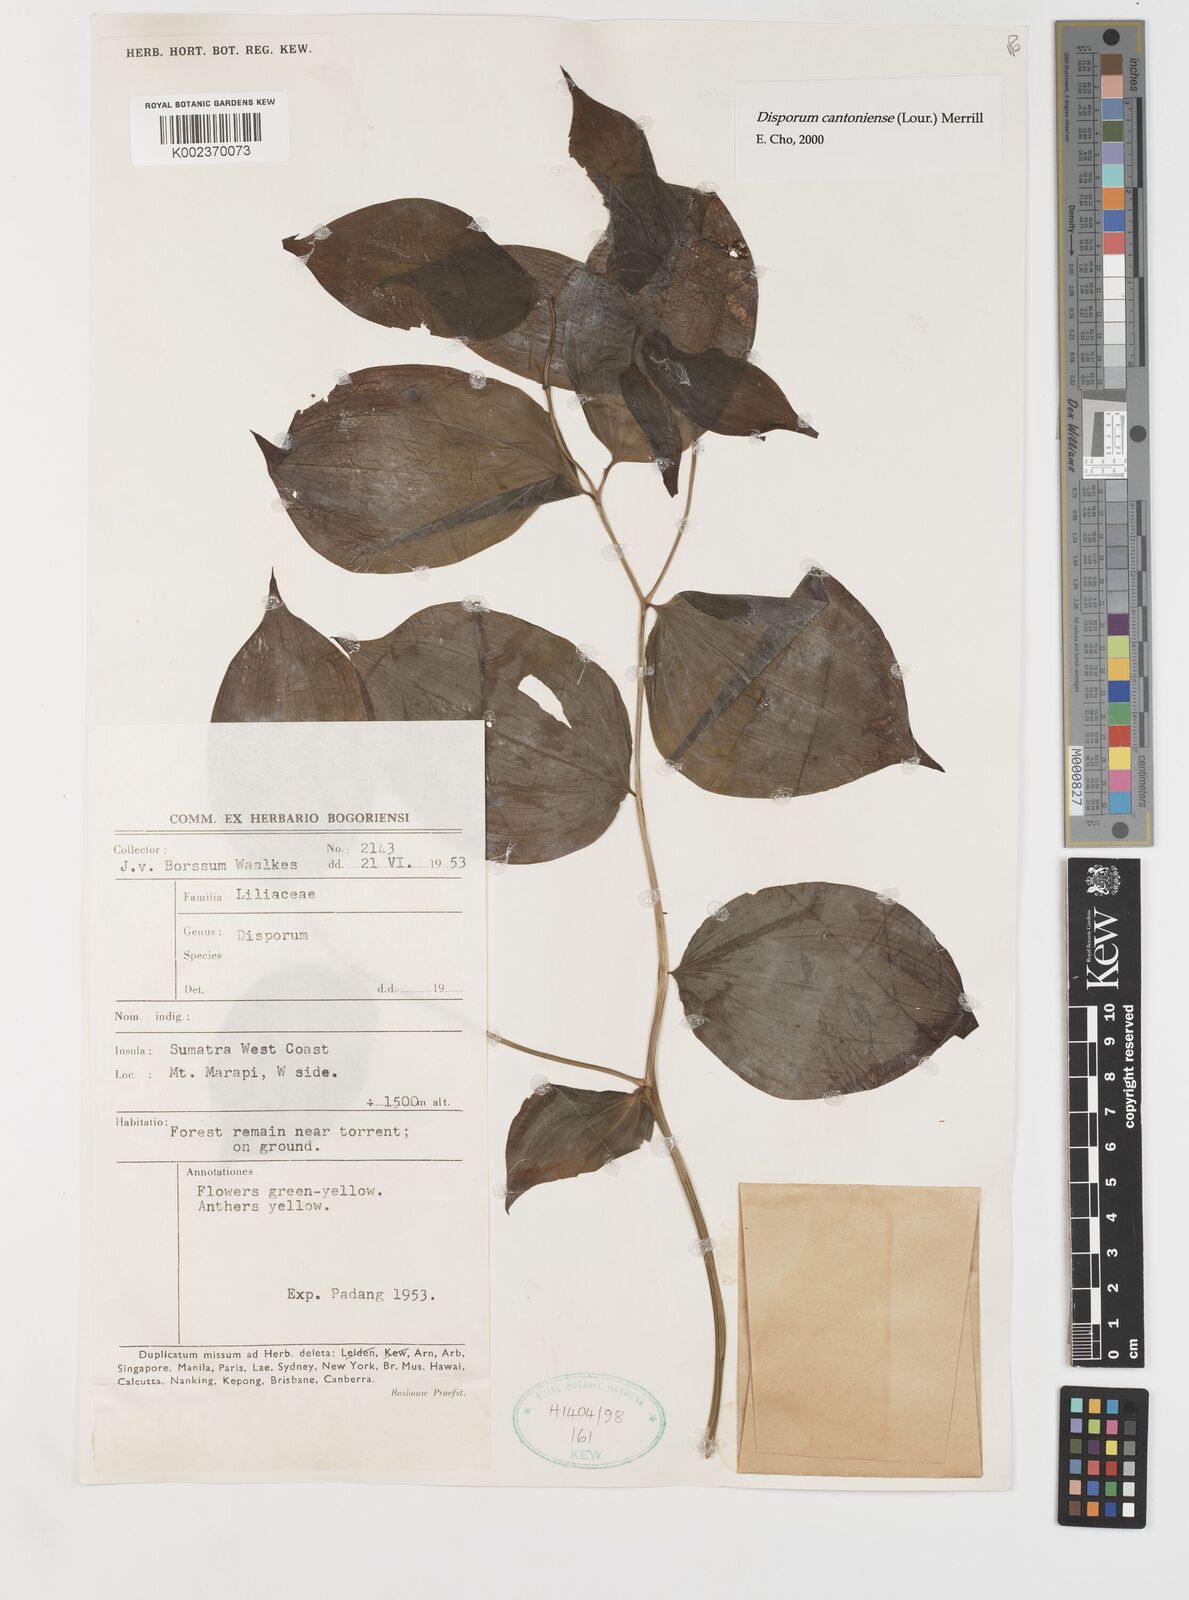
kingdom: Plantae
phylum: Tracheophyta
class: Liliopsida
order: Liliales
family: Colchicaceae
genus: Disporum
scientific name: Disporum cantoniense
